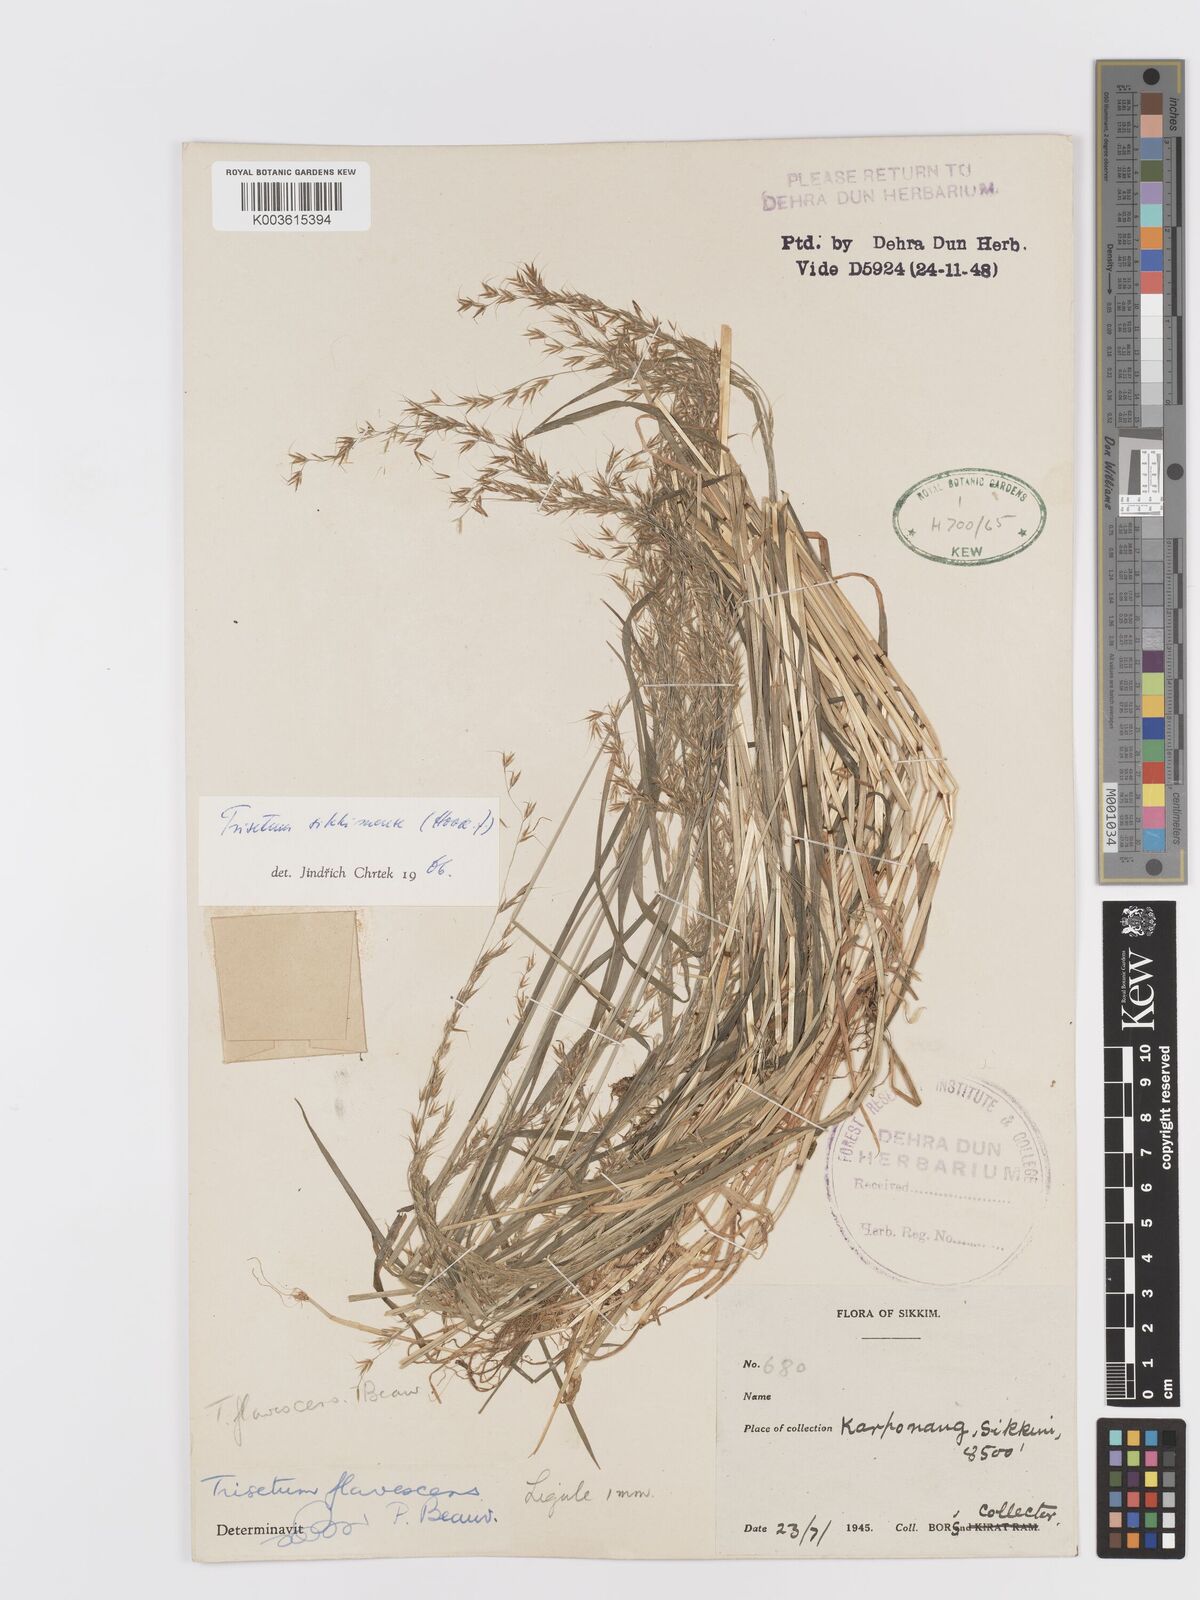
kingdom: Plantae
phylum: Tracheophyta
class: Liliopsida
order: Poales
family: Poaceae
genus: Trisetum
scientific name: Trisetum flavescens
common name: Yellow oat-grass
